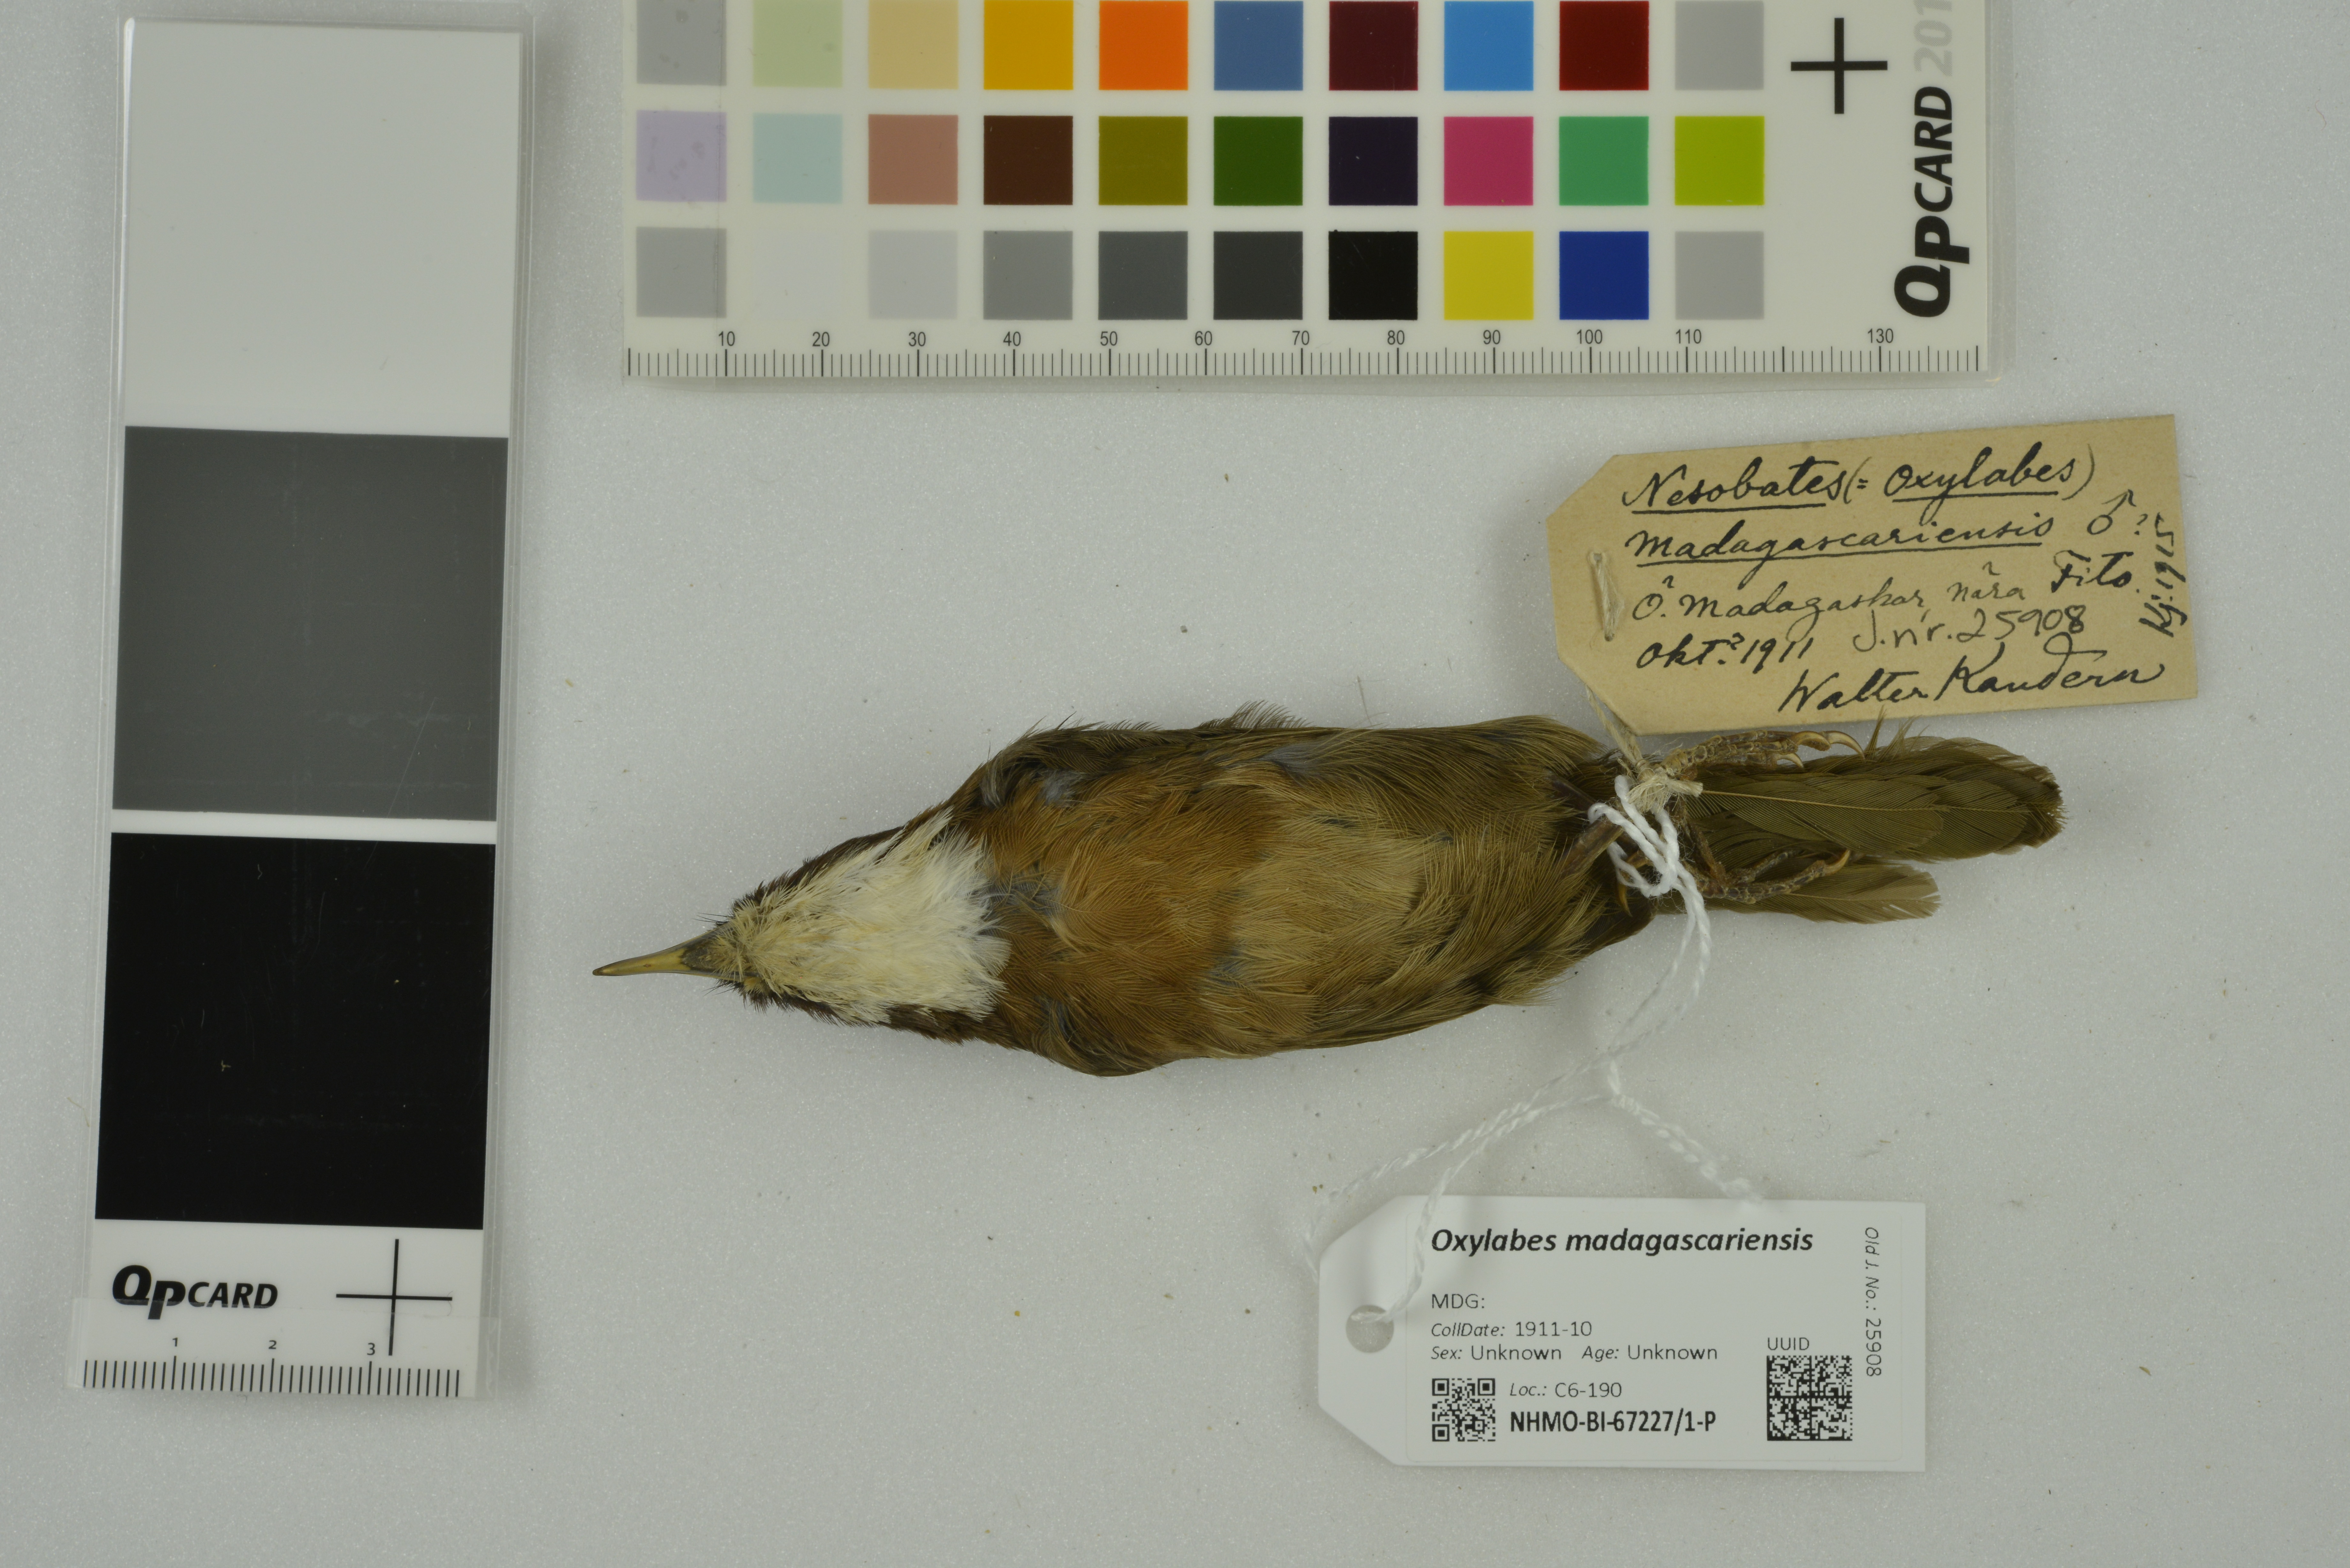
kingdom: Animalia
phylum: Chordata
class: Aves
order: Passeriformes
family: Bernieridae
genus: Oxylabes
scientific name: Oxylabes madagascariensis
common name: White-throated oxylabes
